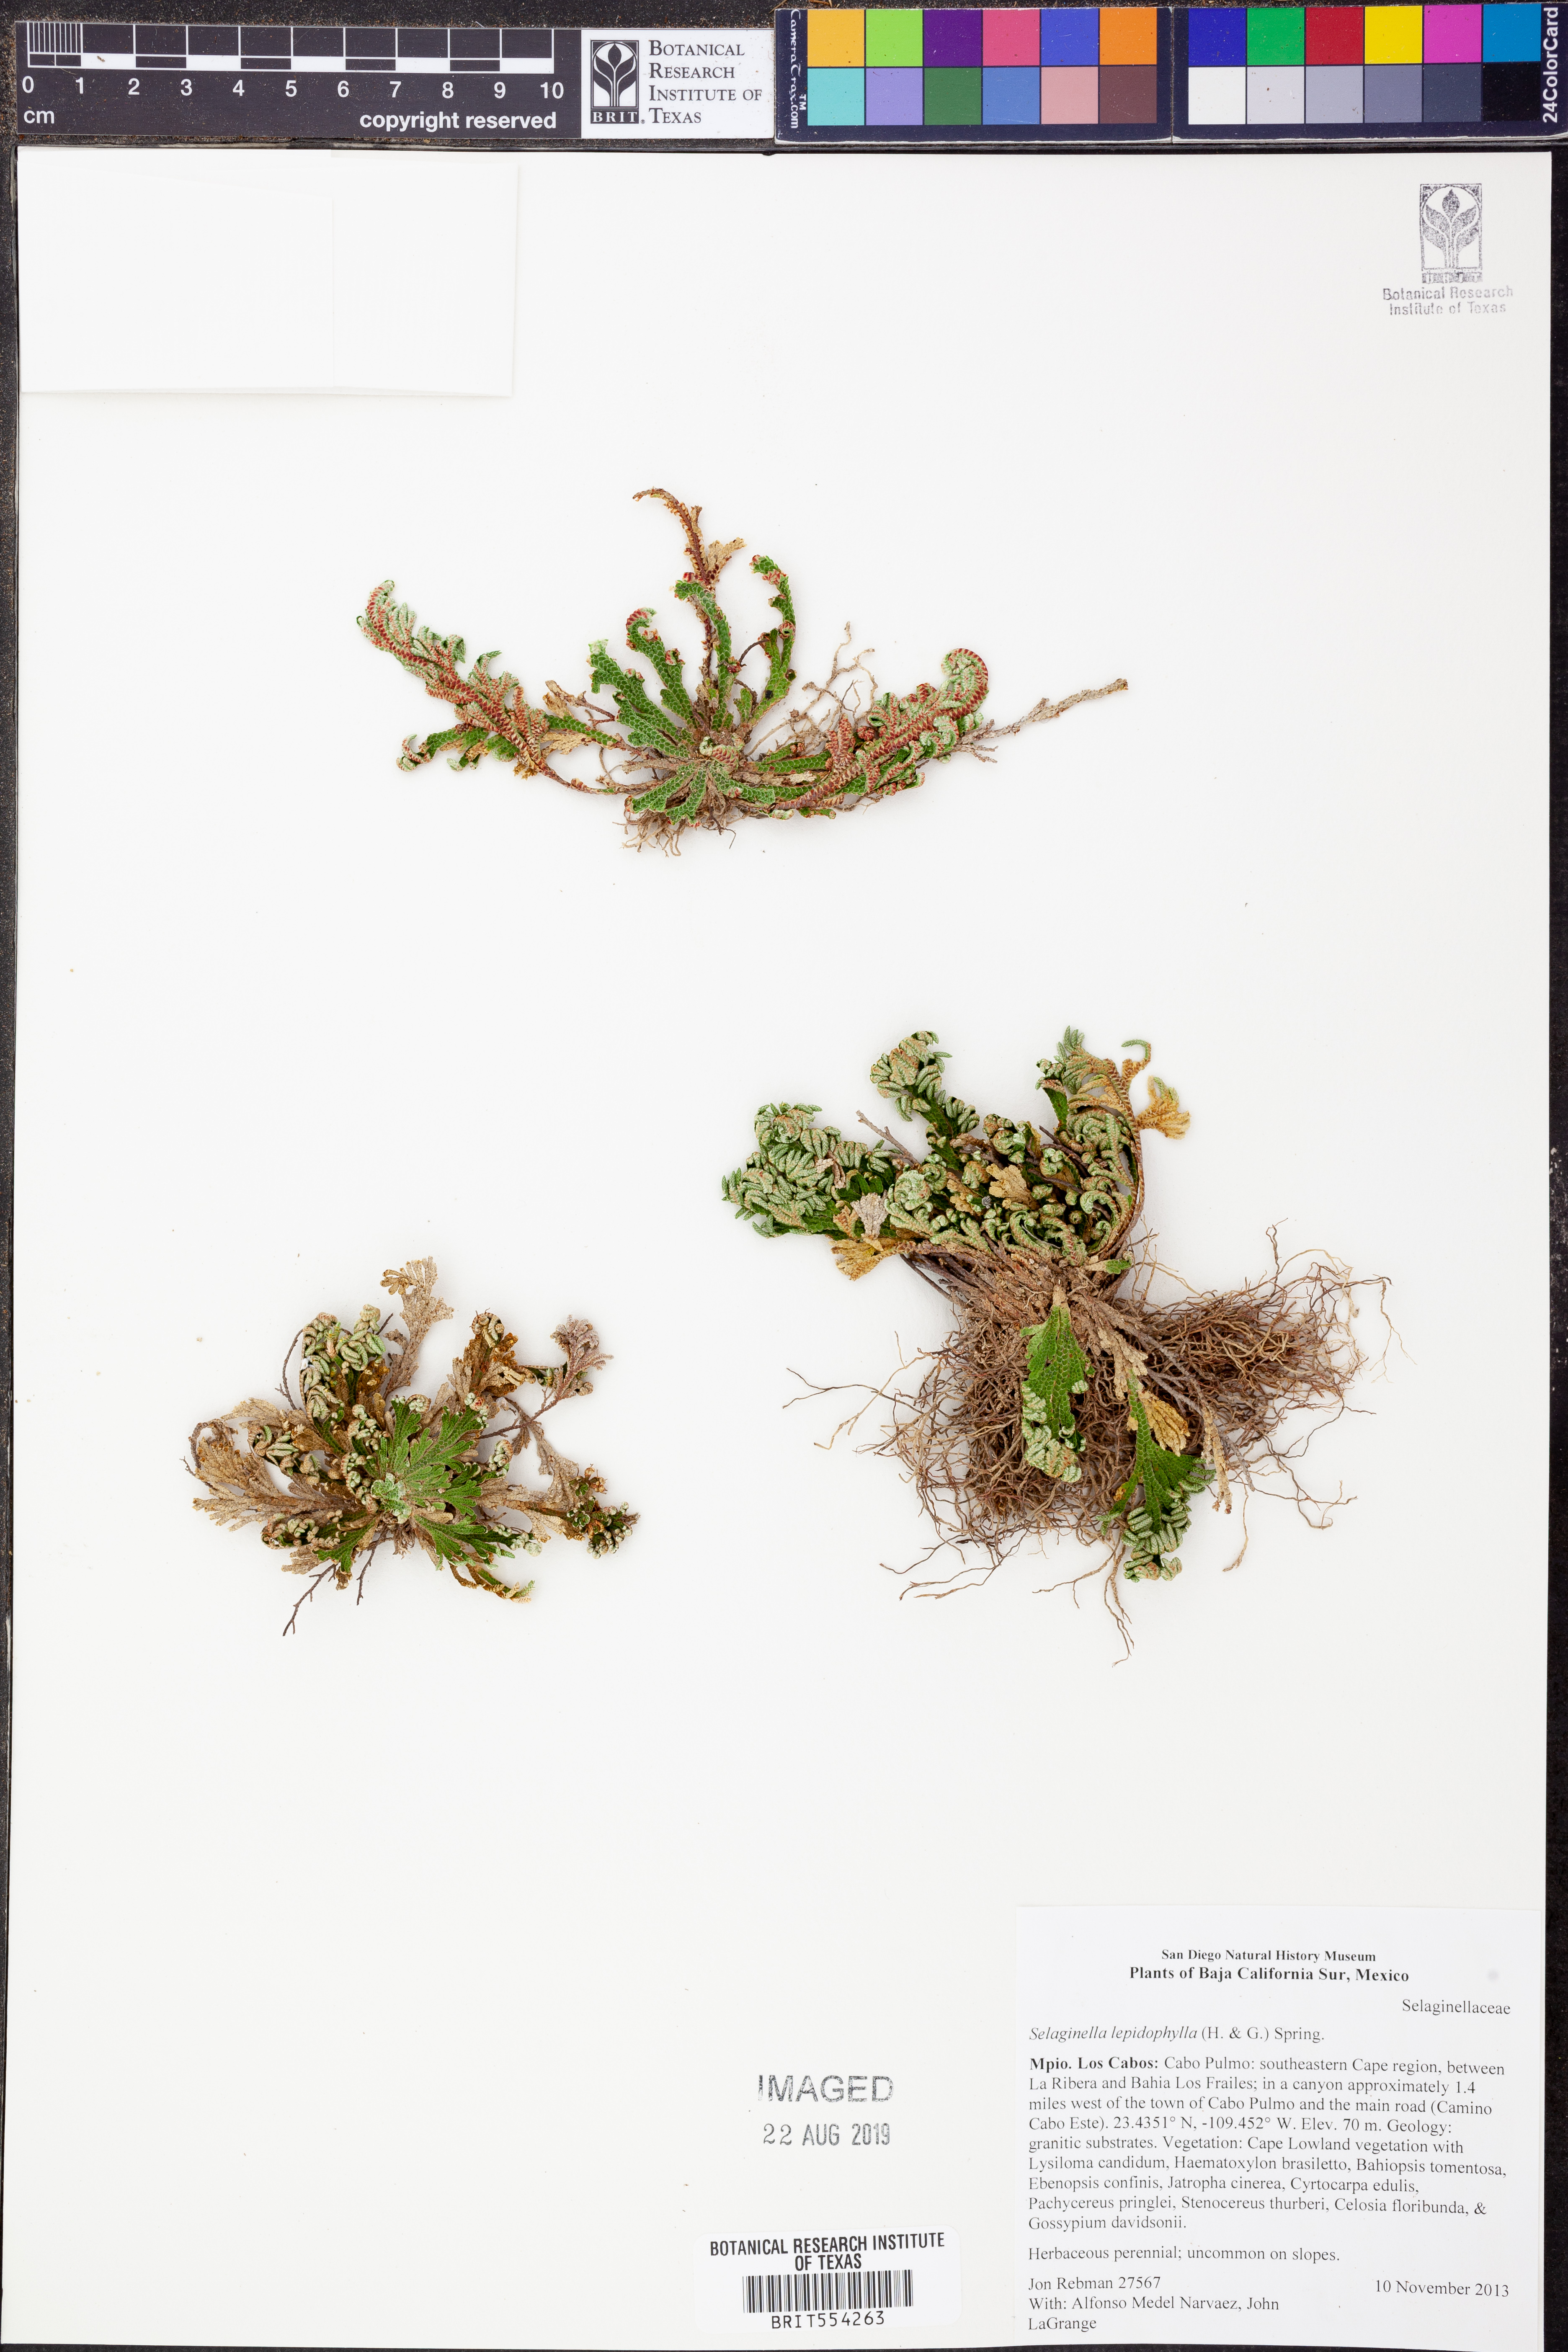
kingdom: Plantae
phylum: Tracheophyta
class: Lycopodiopsida
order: Selaginellales
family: Selaginellaceae
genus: Selaginella
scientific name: Selaginella lepidophylla
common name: Rose-of-jericho
